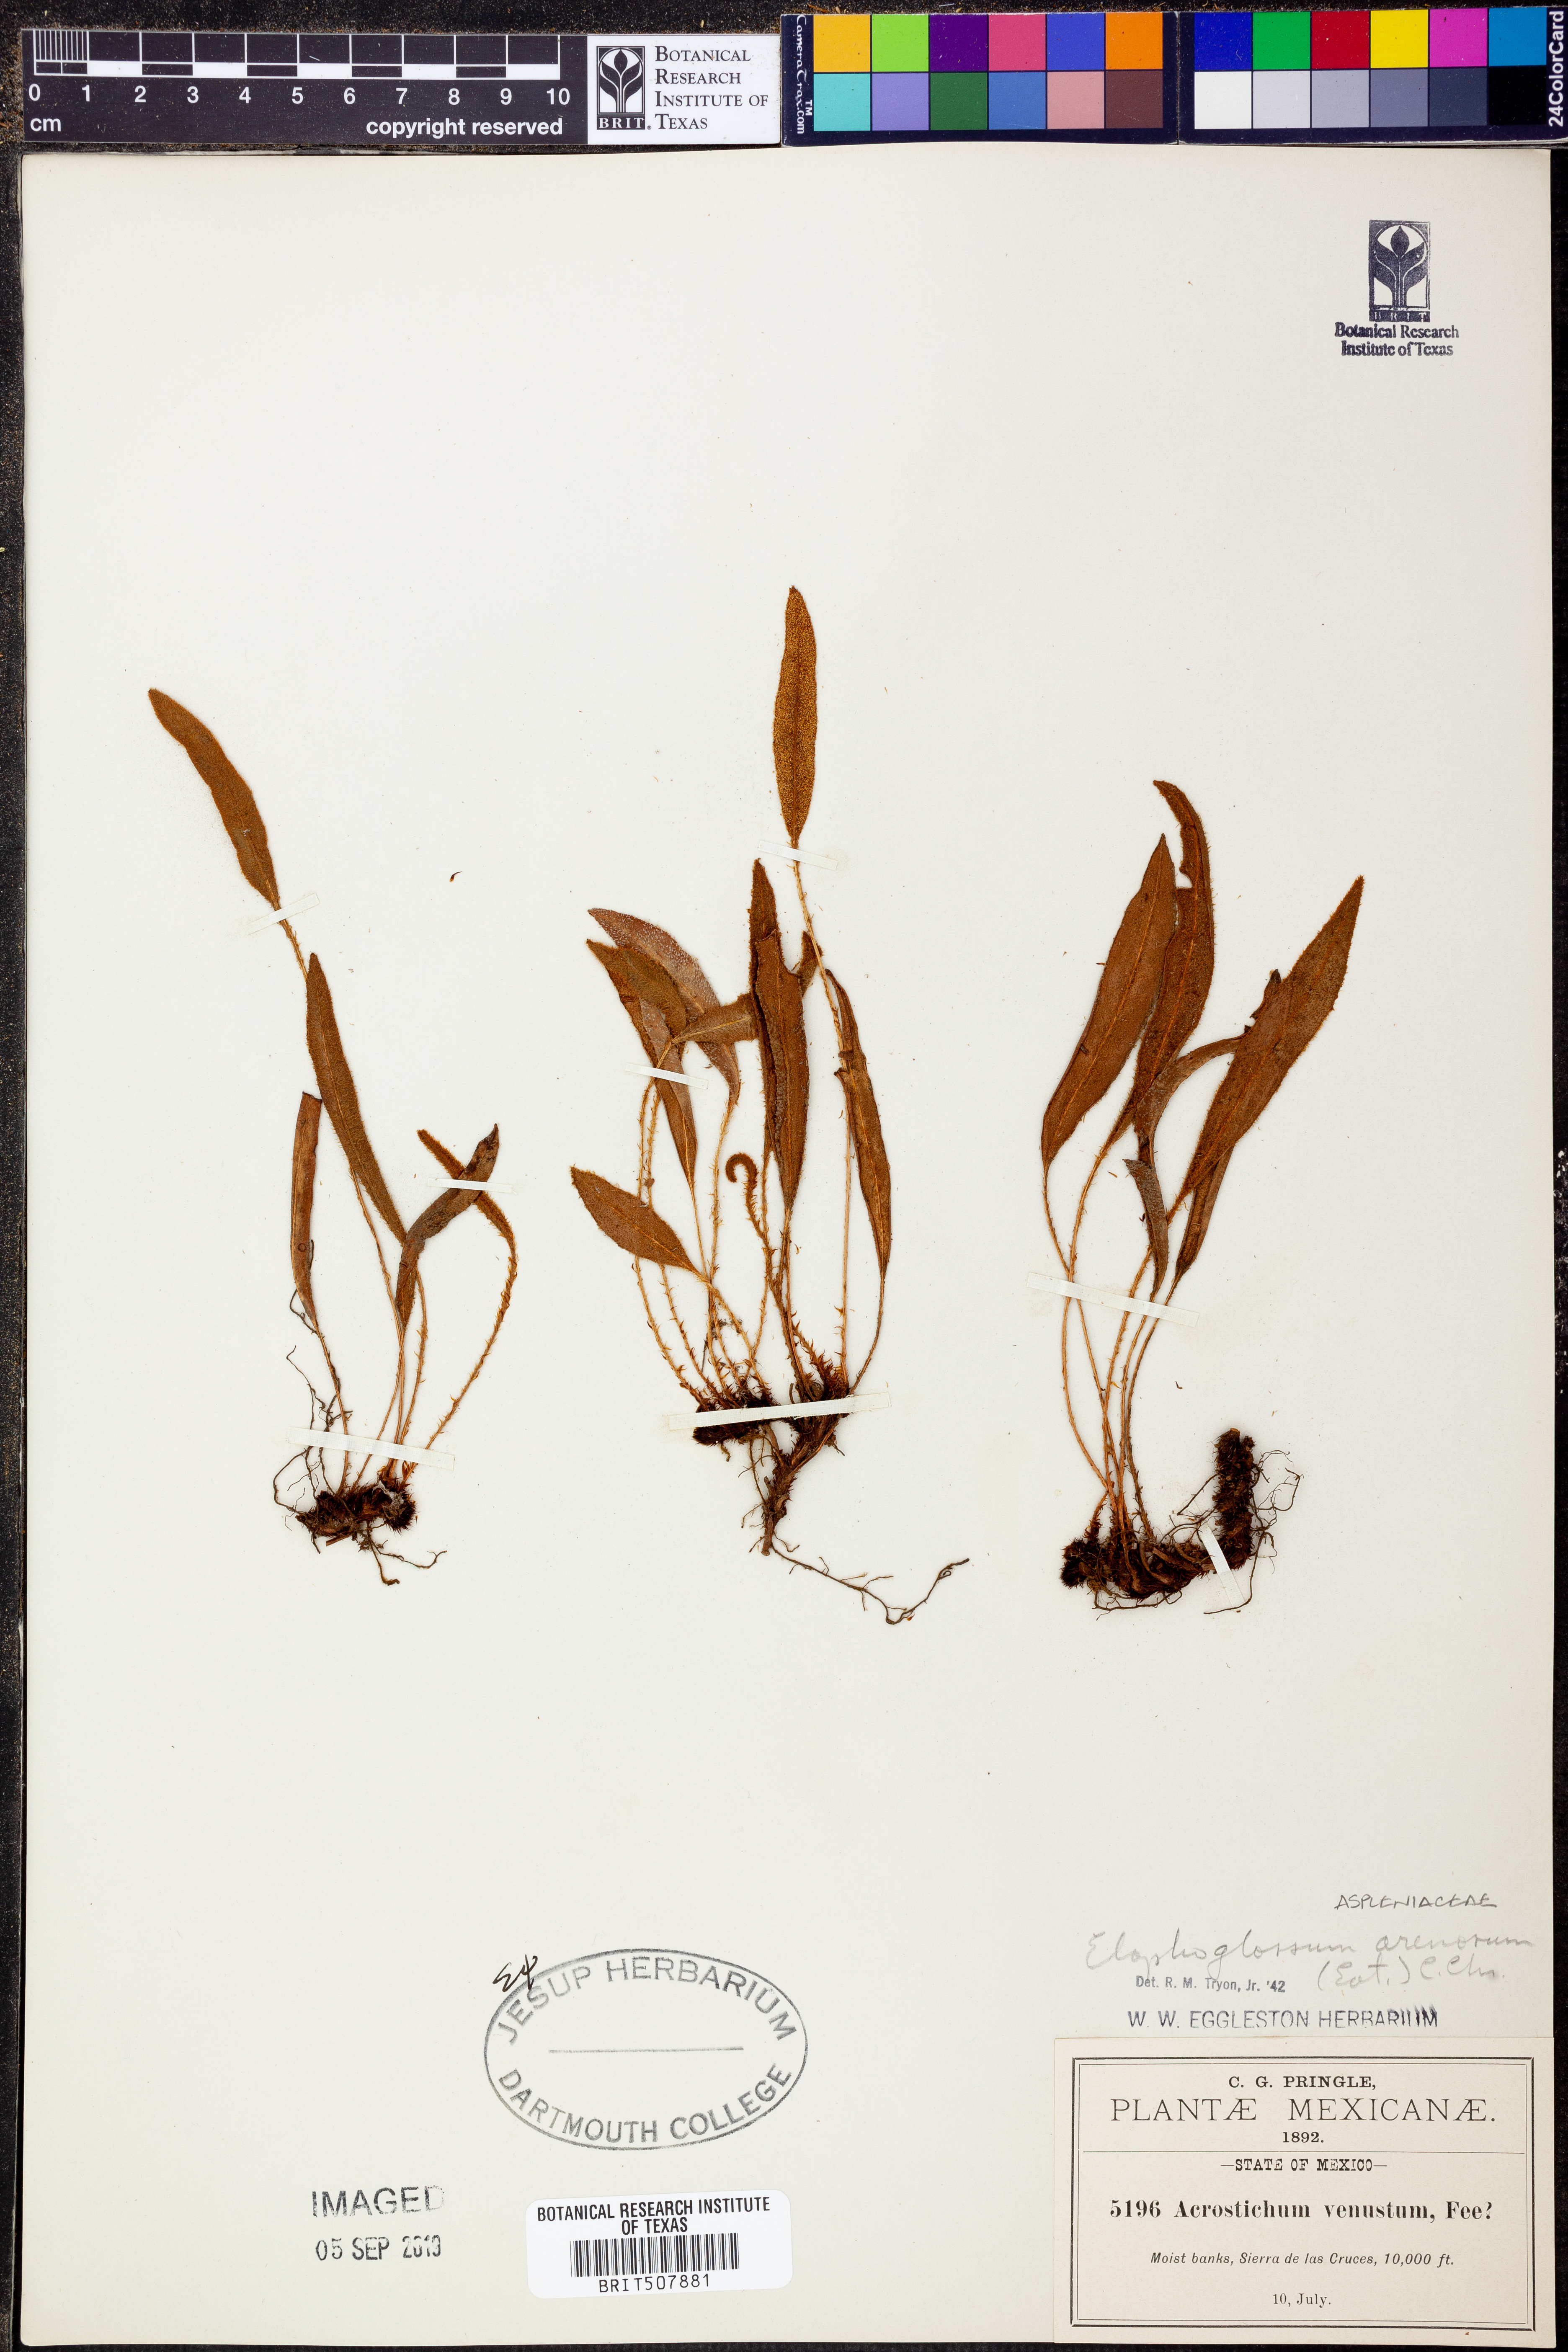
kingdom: Plantae
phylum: Tracheophyta
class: Polypodiopsida
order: Polypodiales
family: Dryopteridaceae
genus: Elaphoglossum
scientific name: Elaphoglossum muelleri
